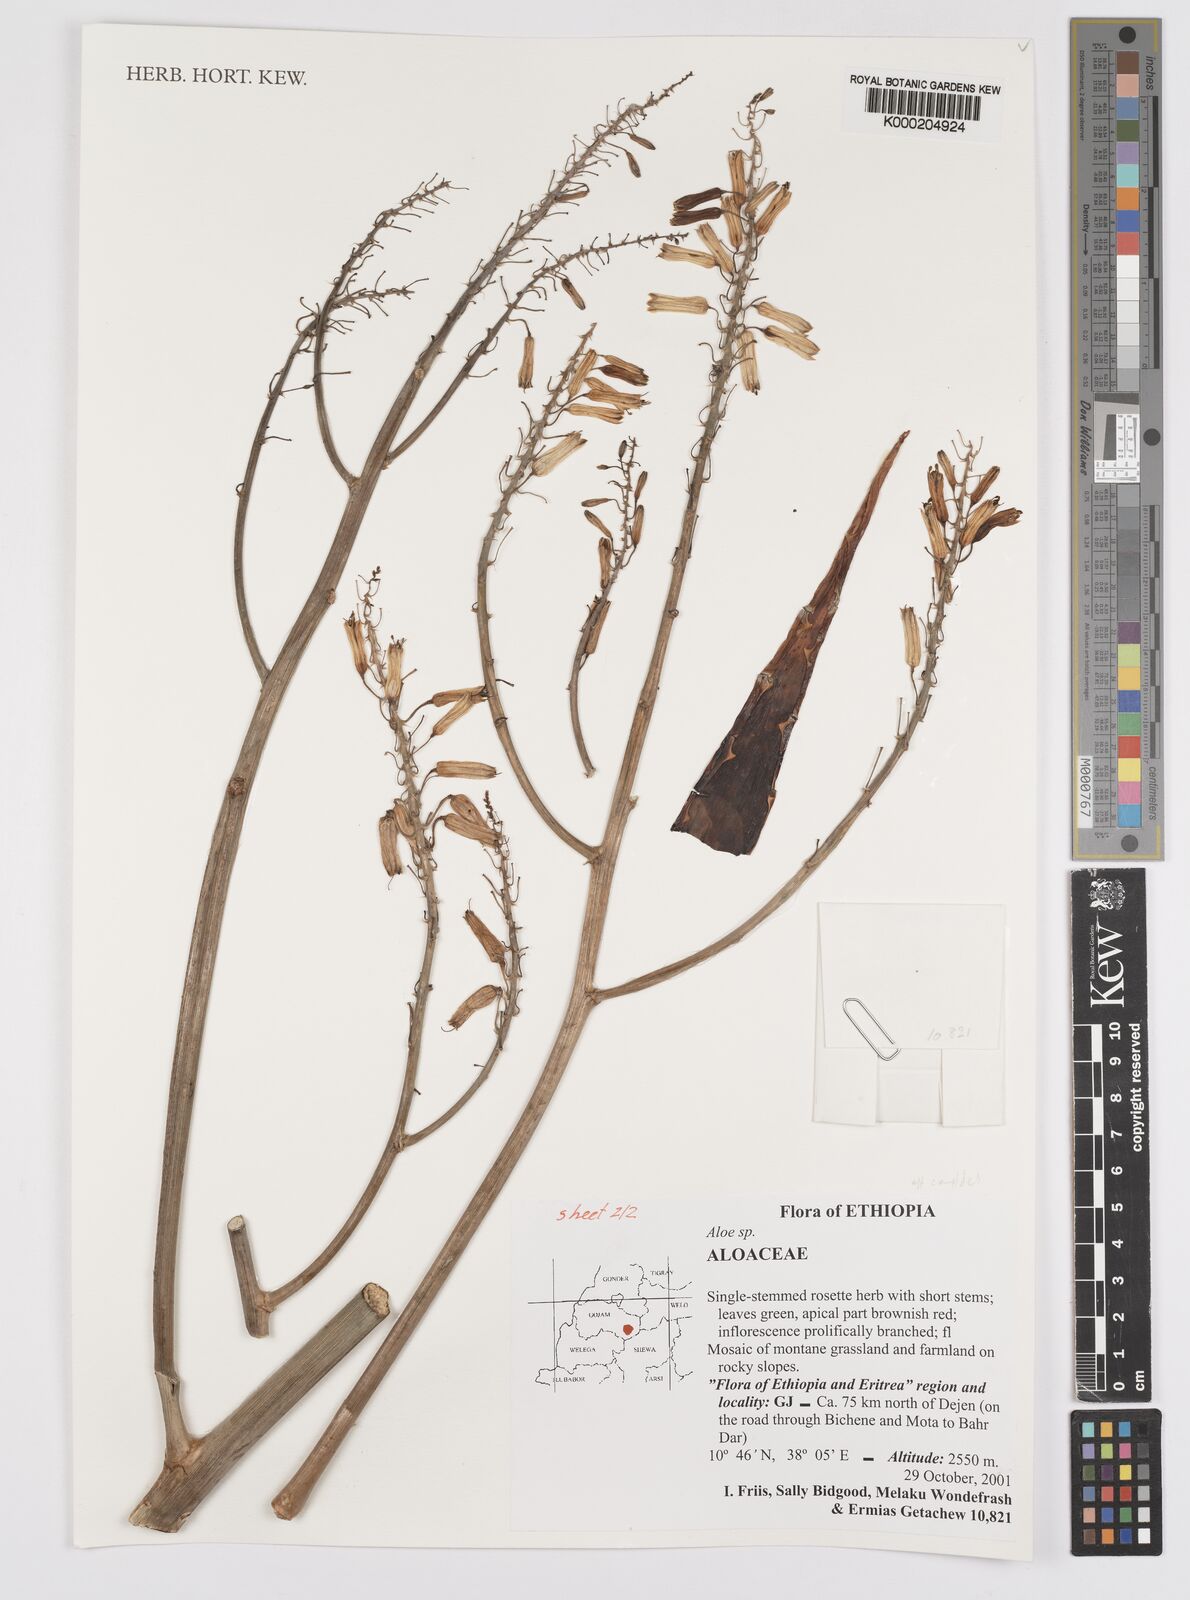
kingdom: Plantae
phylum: Tracheophyta
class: Liliopsida
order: Asparagales
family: Asphodelaceae
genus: Aloe
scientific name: Aloe
